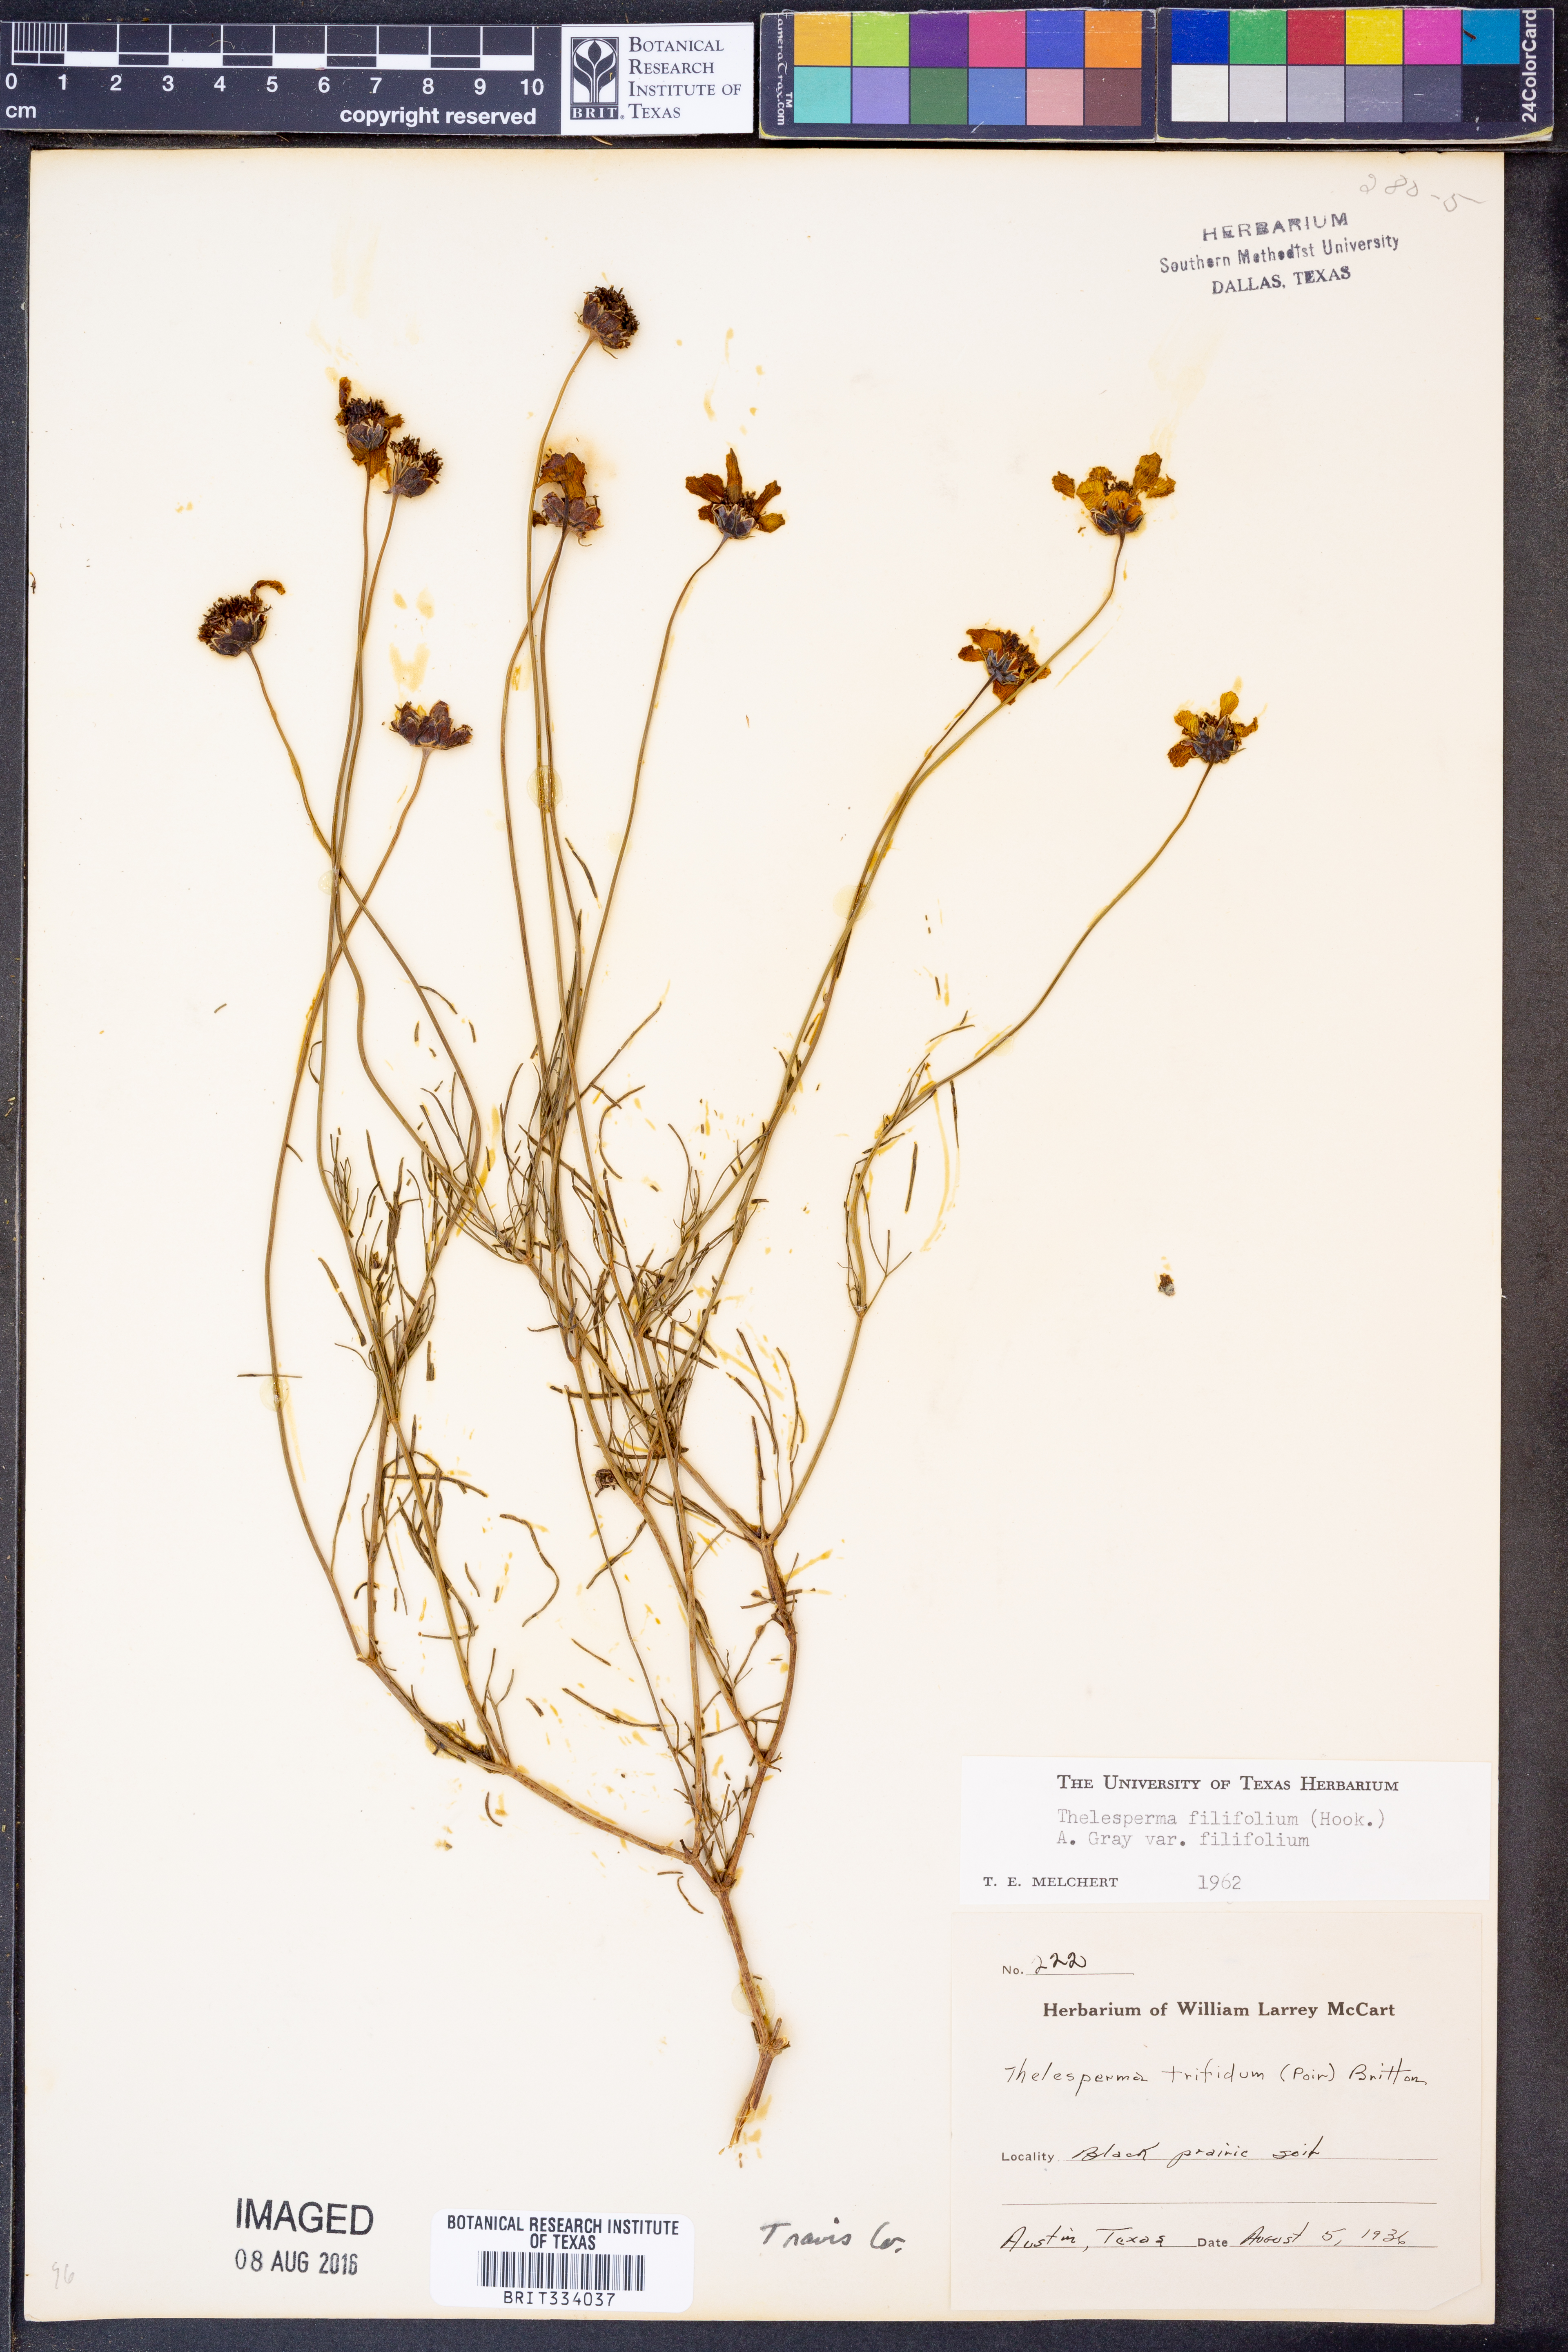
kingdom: Plantae
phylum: Tracheophyta
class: Magnoliopsida
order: Asterales
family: Asteraceae
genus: Thelesperma
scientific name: Thelesperma filifolium
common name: Stiff greenthread
